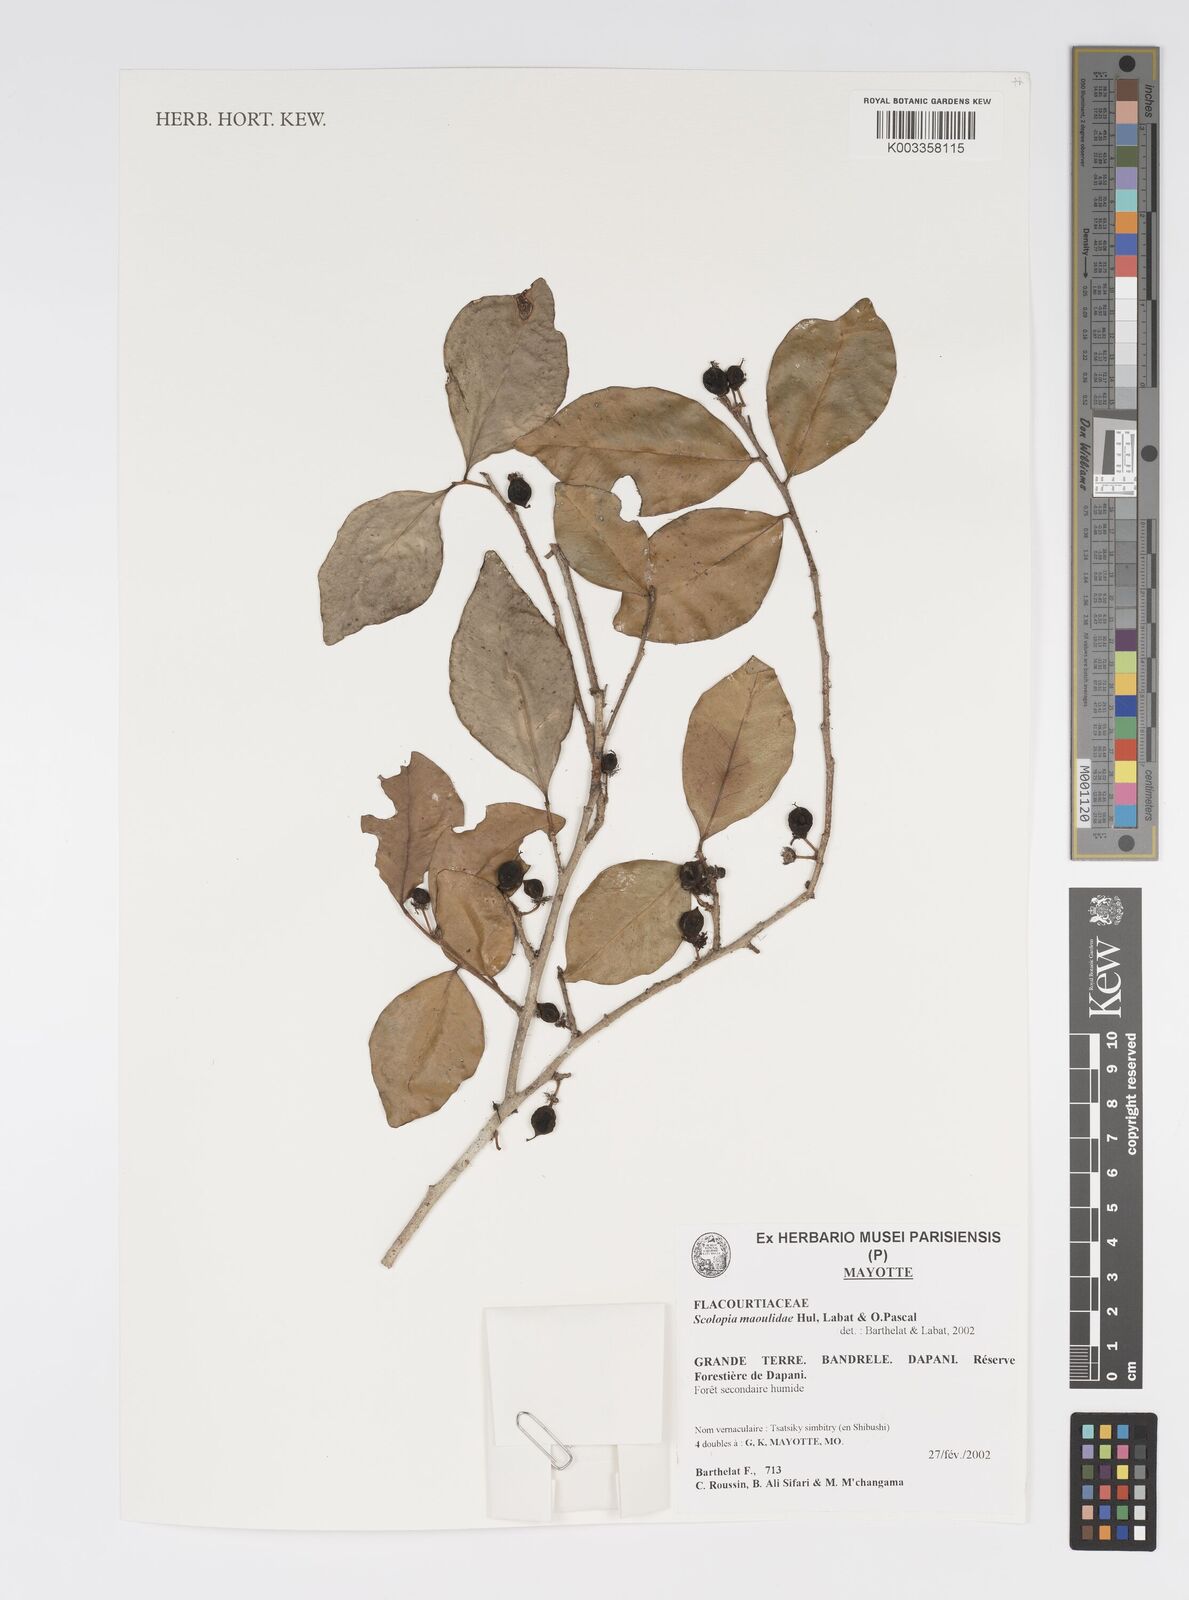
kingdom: Plantae
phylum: Tracheophyta
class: Magnoliopsida
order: Malpighiales
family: Salicaceae
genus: Scolopia
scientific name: Scolopia maoulidae
